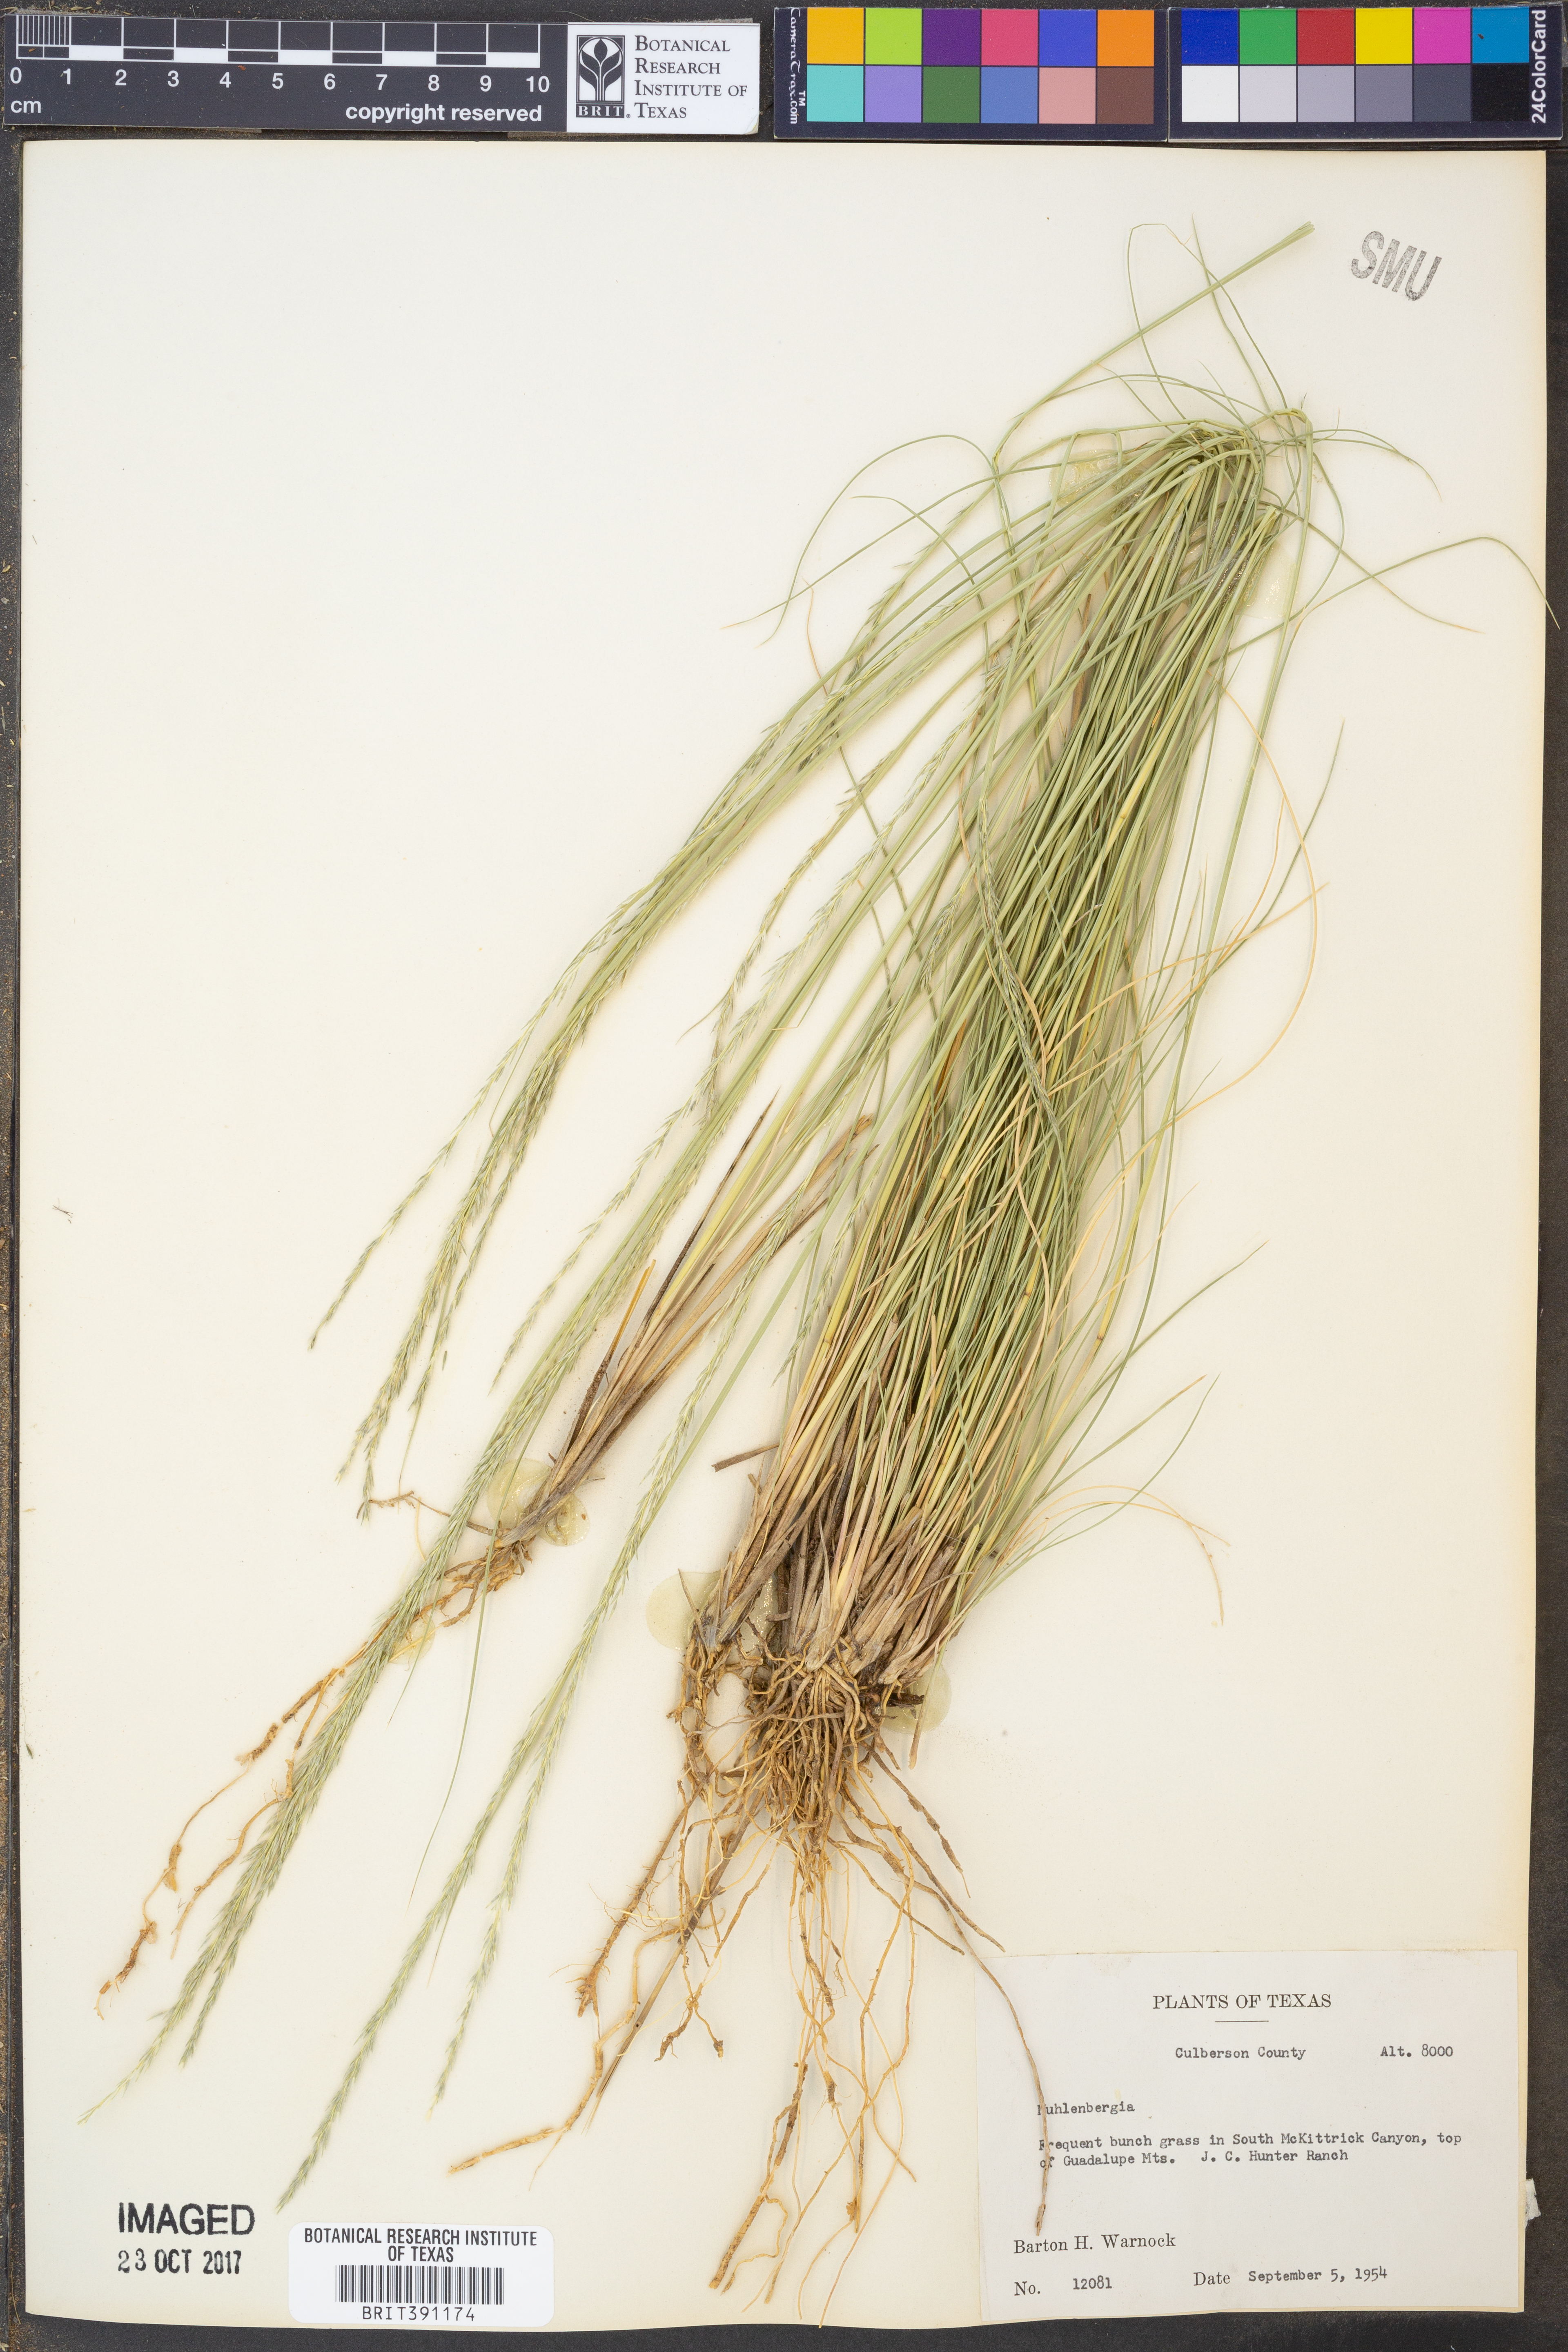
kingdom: Plantae
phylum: Tracheophyta
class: Liliopsida
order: Poales
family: Poaceae
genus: Muhlenbergia
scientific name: Muhlenbergia
